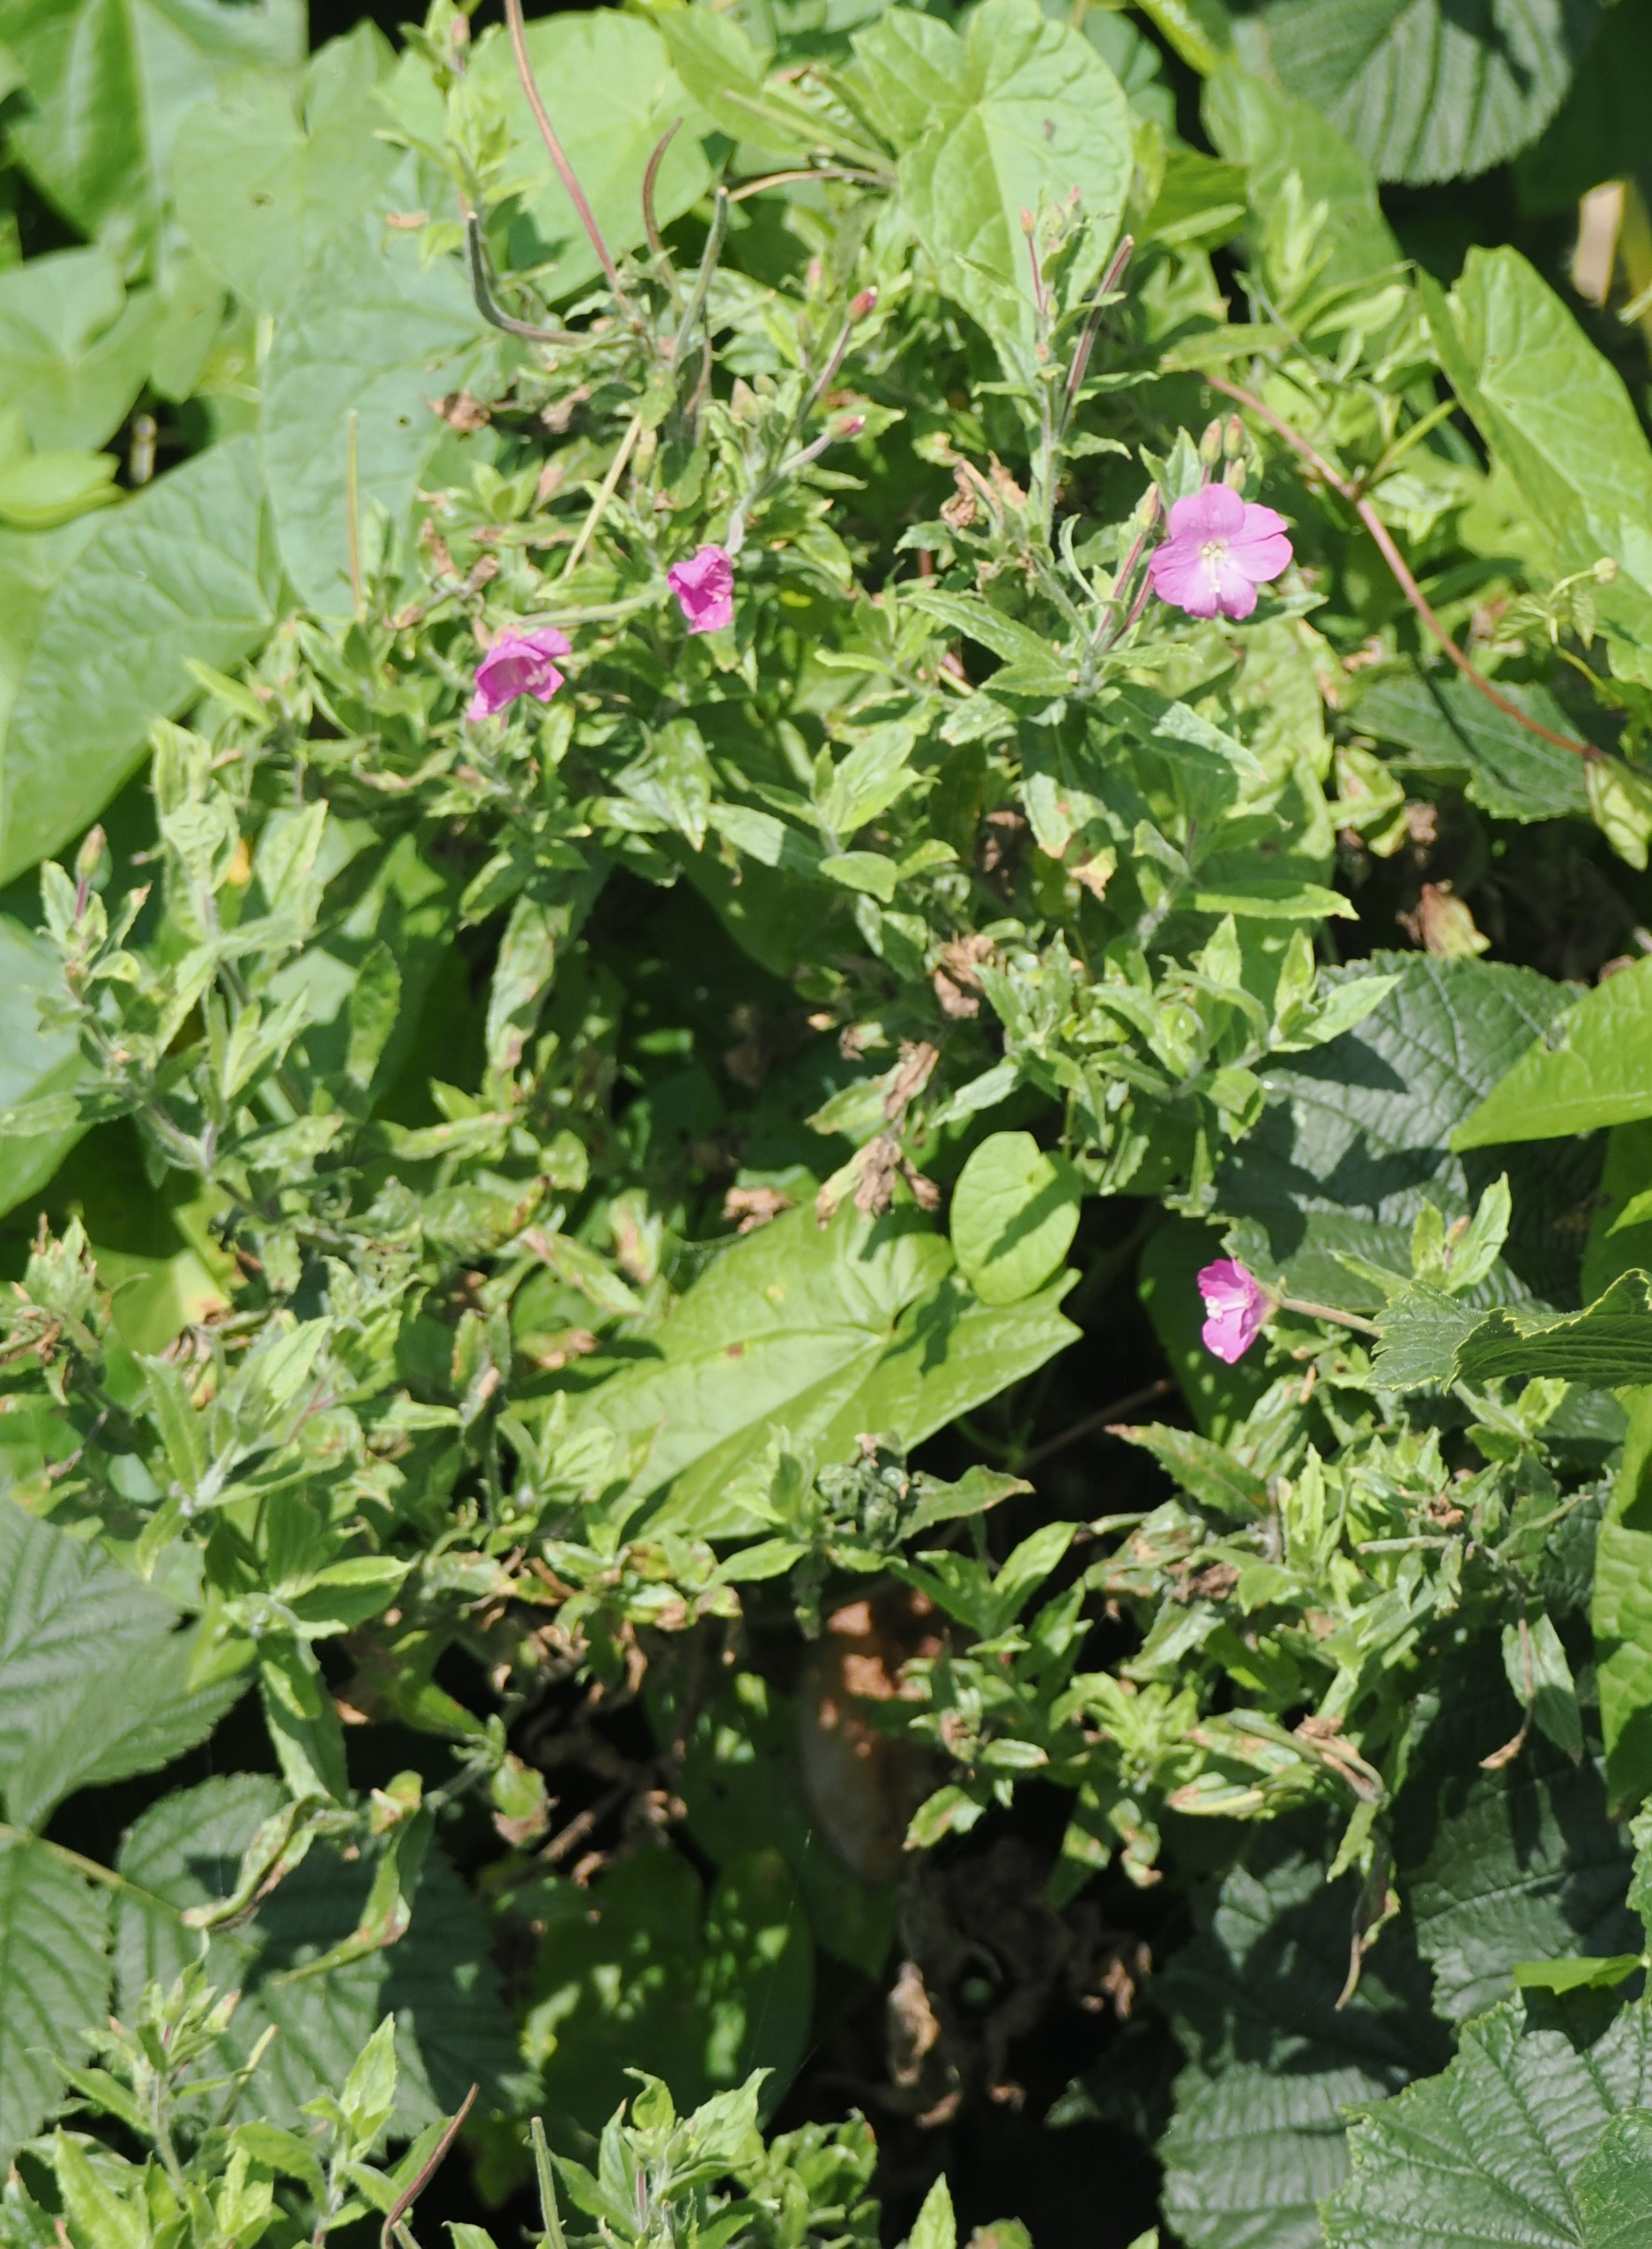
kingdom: Plantae
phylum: Tracheophyta
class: Magnoliopsida
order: Myrtales
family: Onagraceae
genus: Epilobium
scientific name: Epilobium hirsutum
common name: Lådden dueurt
